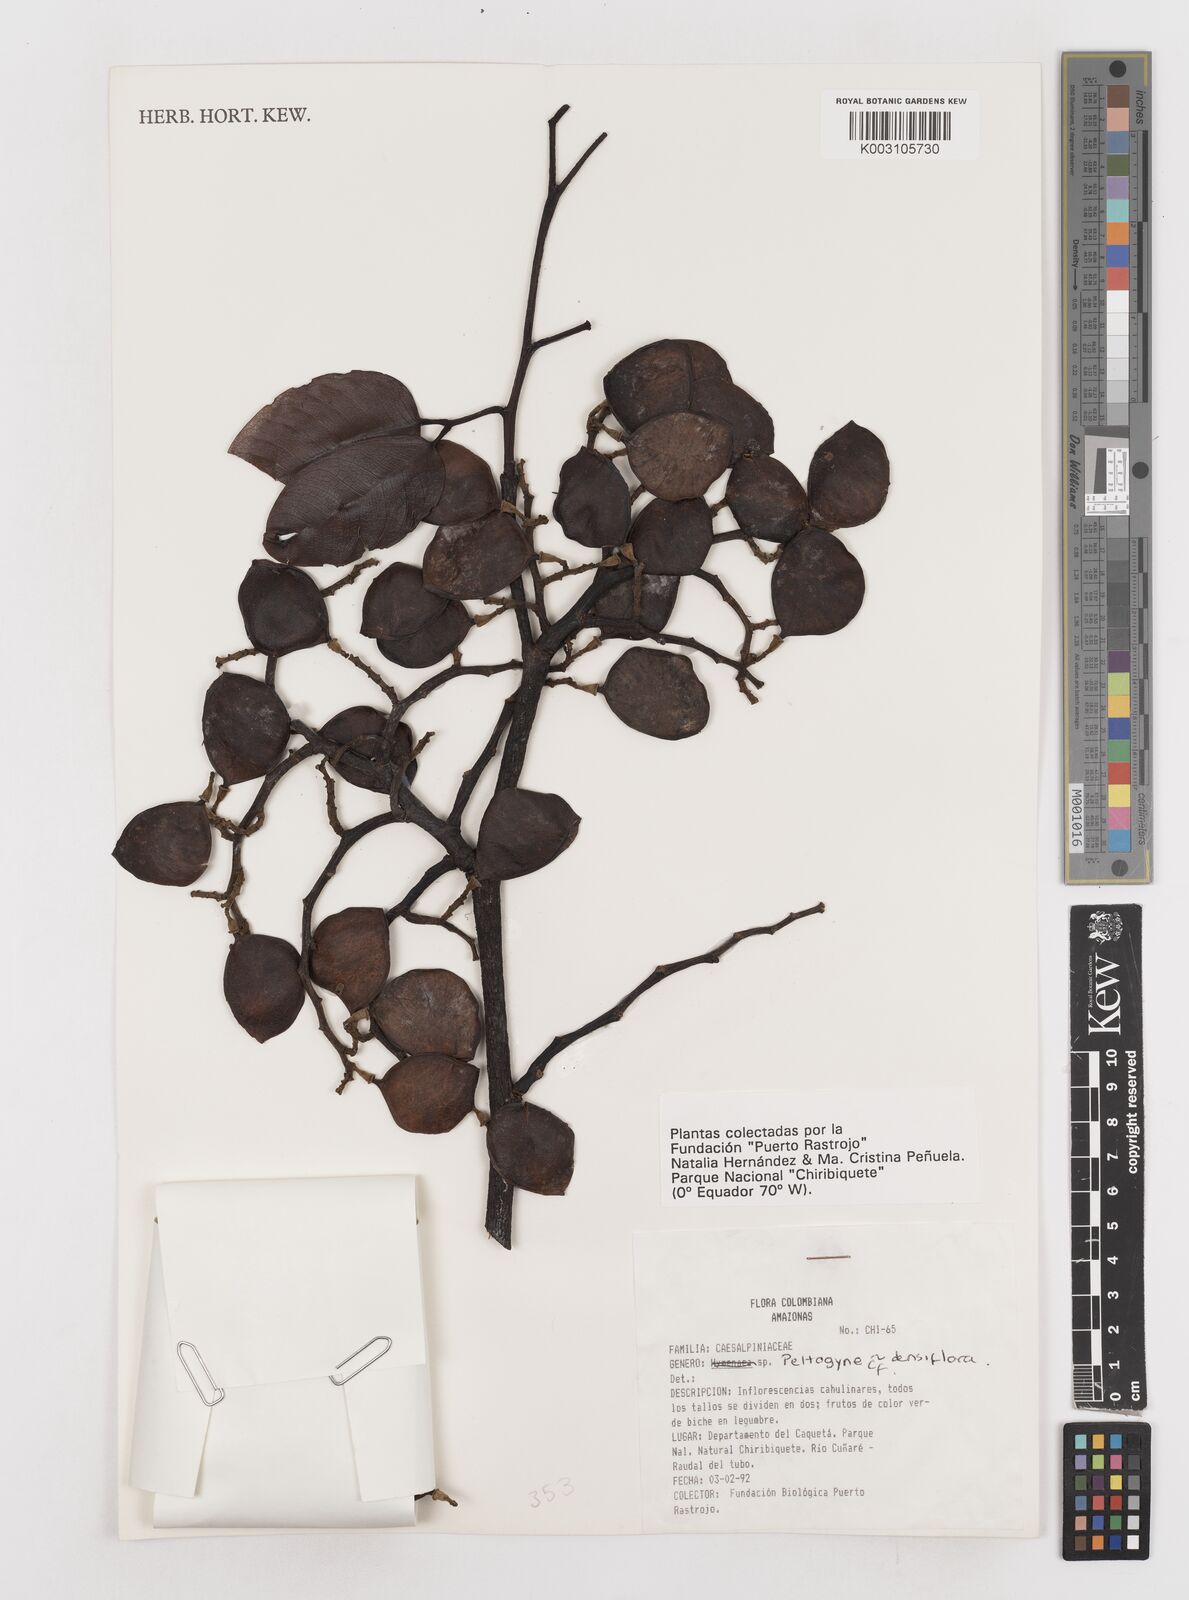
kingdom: Plantae
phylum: Tracheophyta
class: Magnoliopsida
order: Fabales
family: Fabaceae
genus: Peltogyne
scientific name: Peltogyne venosa
